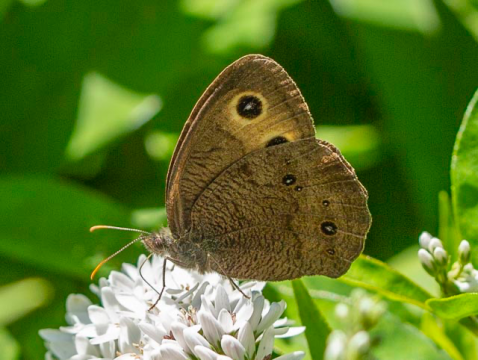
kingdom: Animalia
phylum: Arthropoda
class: Insecta
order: Lepidoptera
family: Nymphalidae
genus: Cercyonis
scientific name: Cercyonis pegala
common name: Common Wood-Nymph
